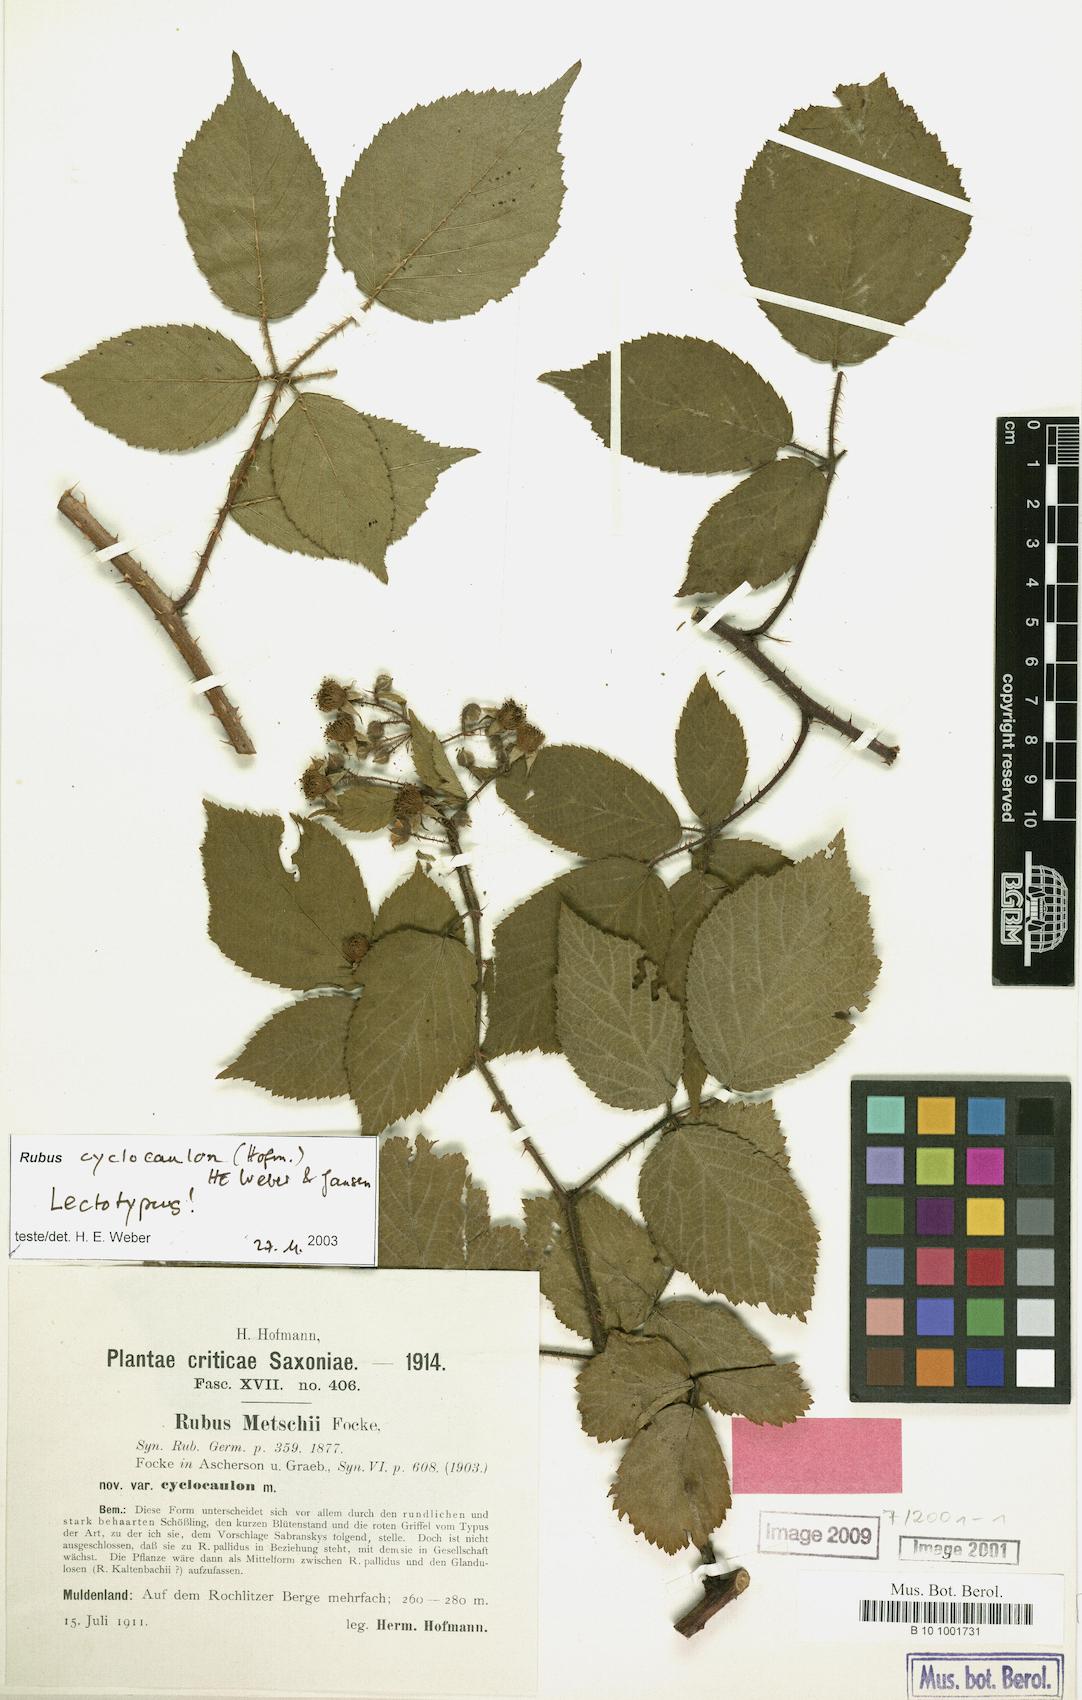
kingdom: Plantae
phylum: Tracheophyta
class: Magnoliopsida
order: Rosales
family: Rosaceae
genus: Rubus
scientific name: Rubus
